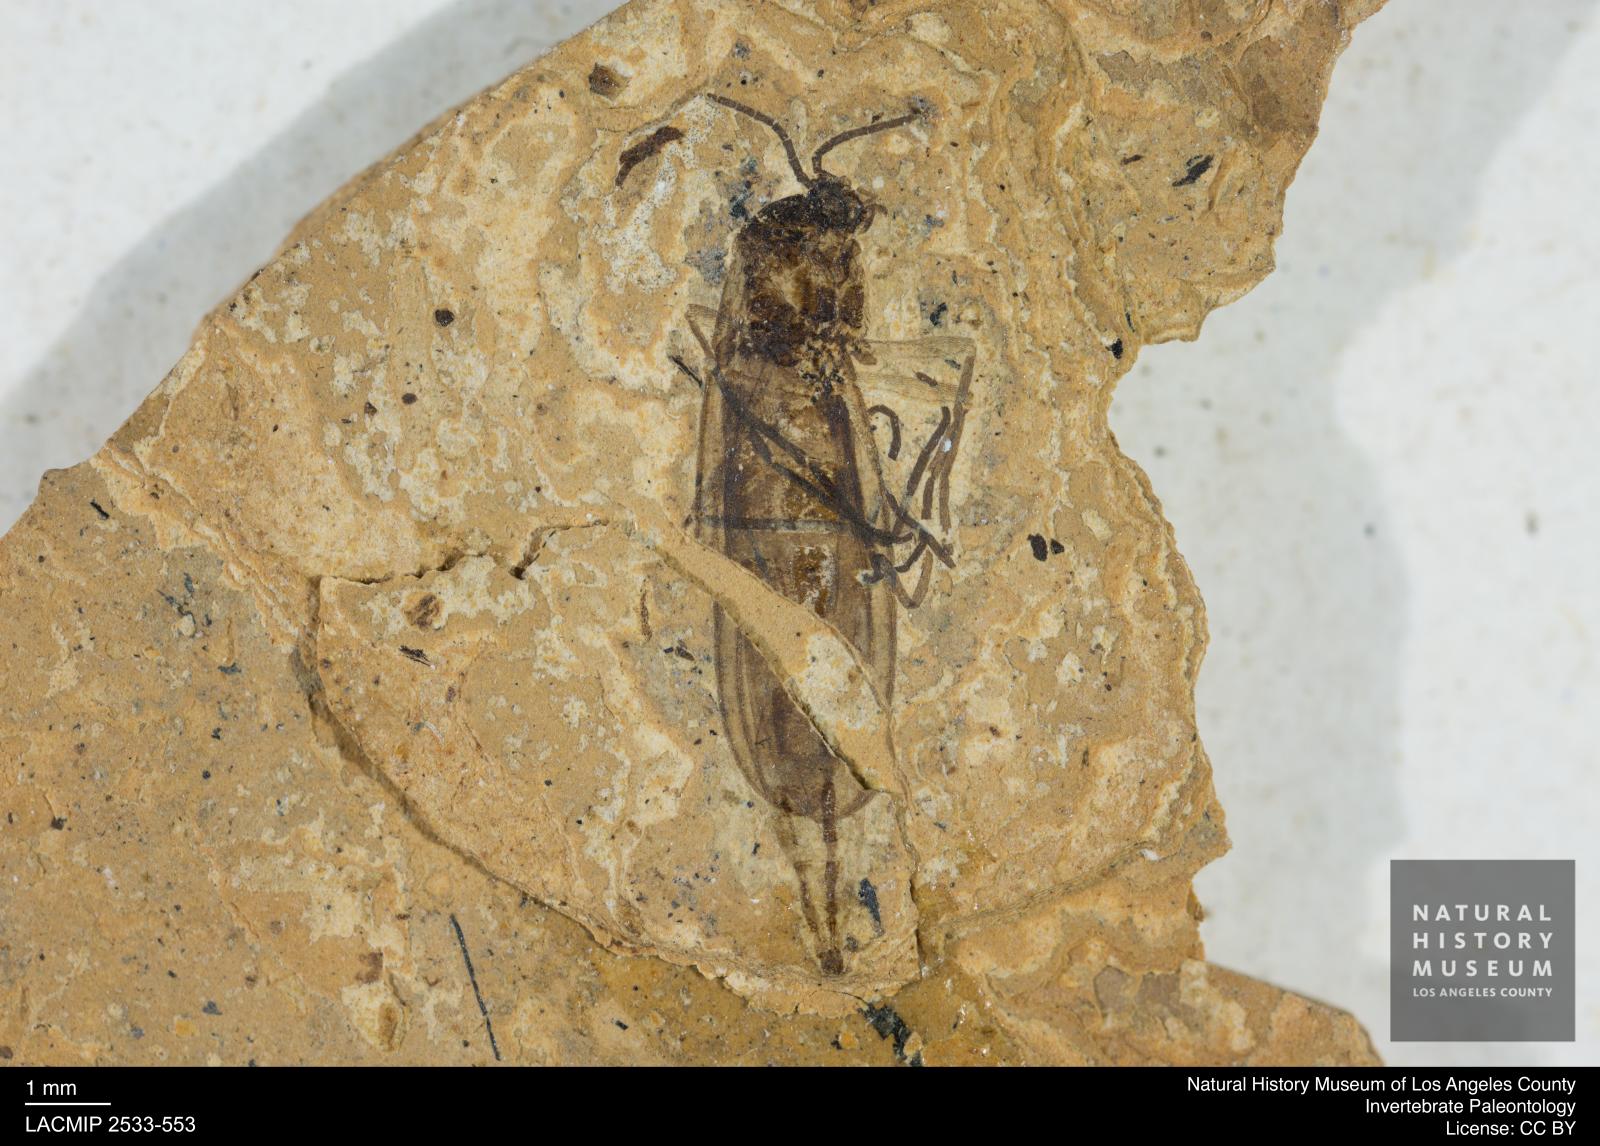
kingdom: Animalia
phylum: Arthropoda
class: Insecta
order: Diptera
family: Sciaridae
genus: Sciara
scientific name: Sciara aulica
